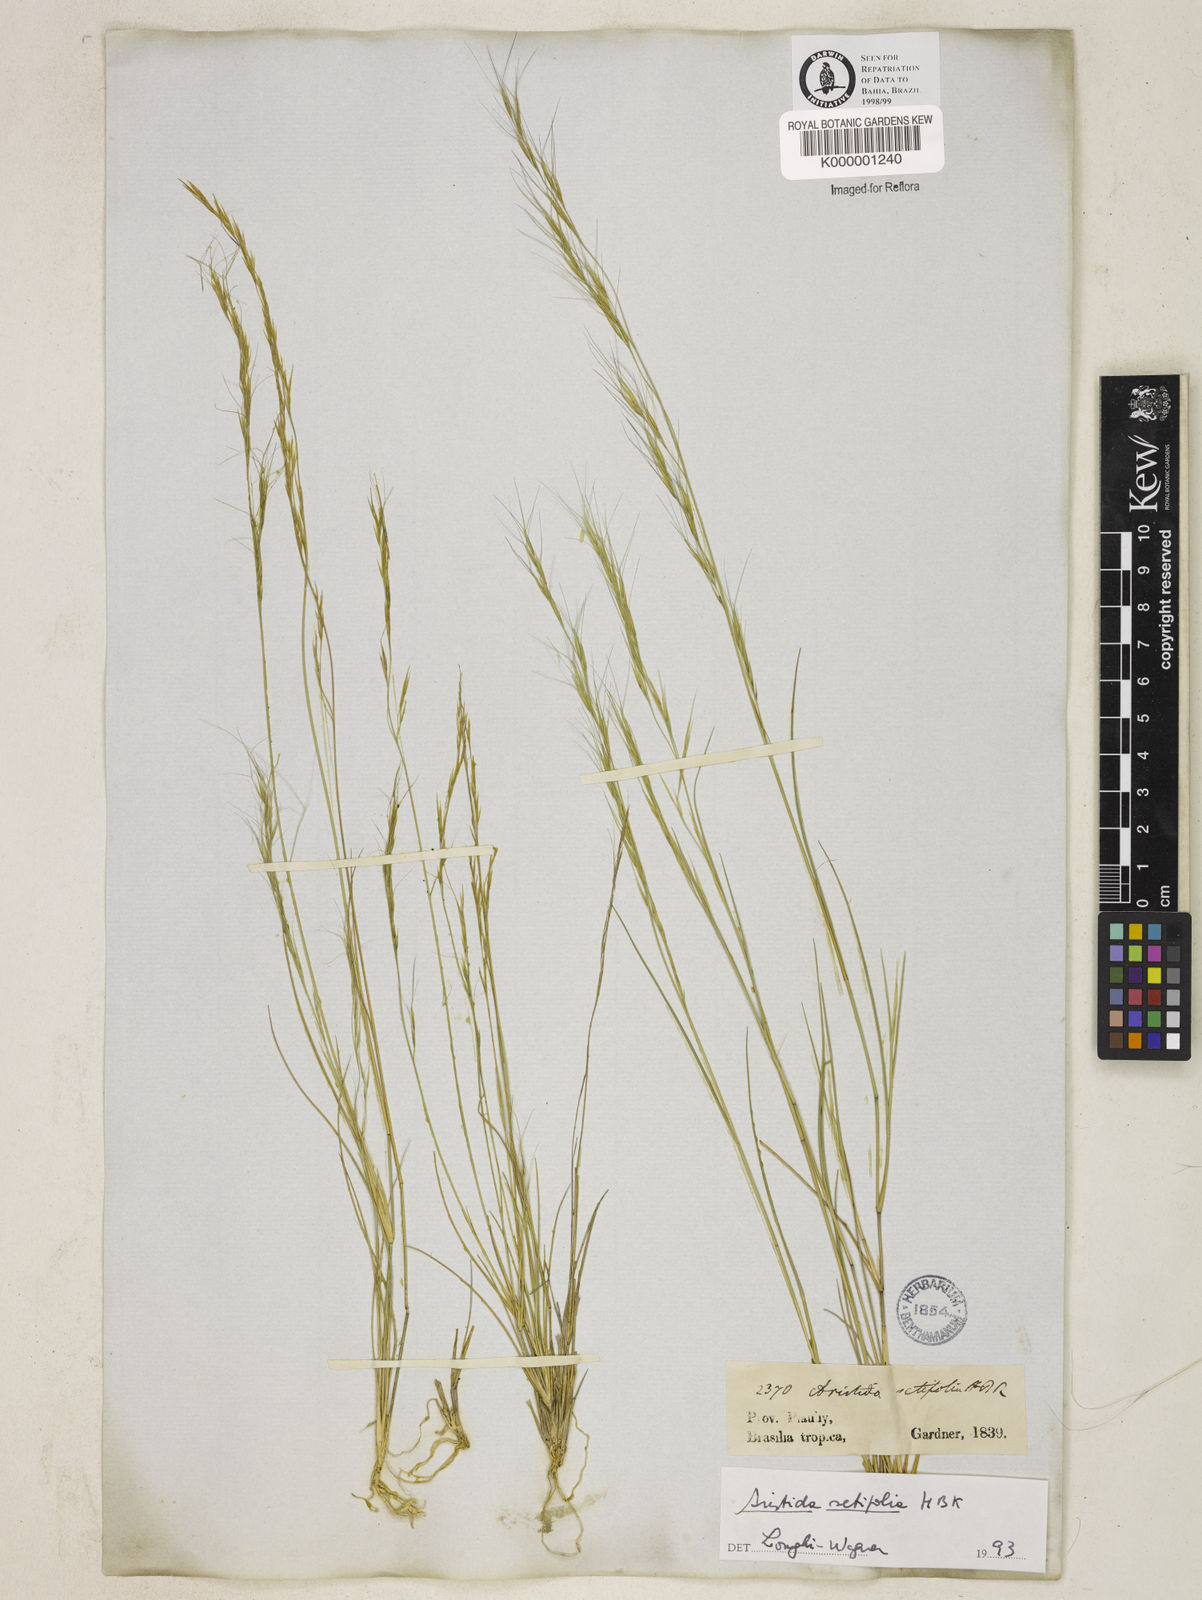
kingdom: Plantae
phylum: Tracheophyta
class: Liliopsida
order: Poales
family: Poaceae
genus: Aristida
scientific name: Aristida setifolia
